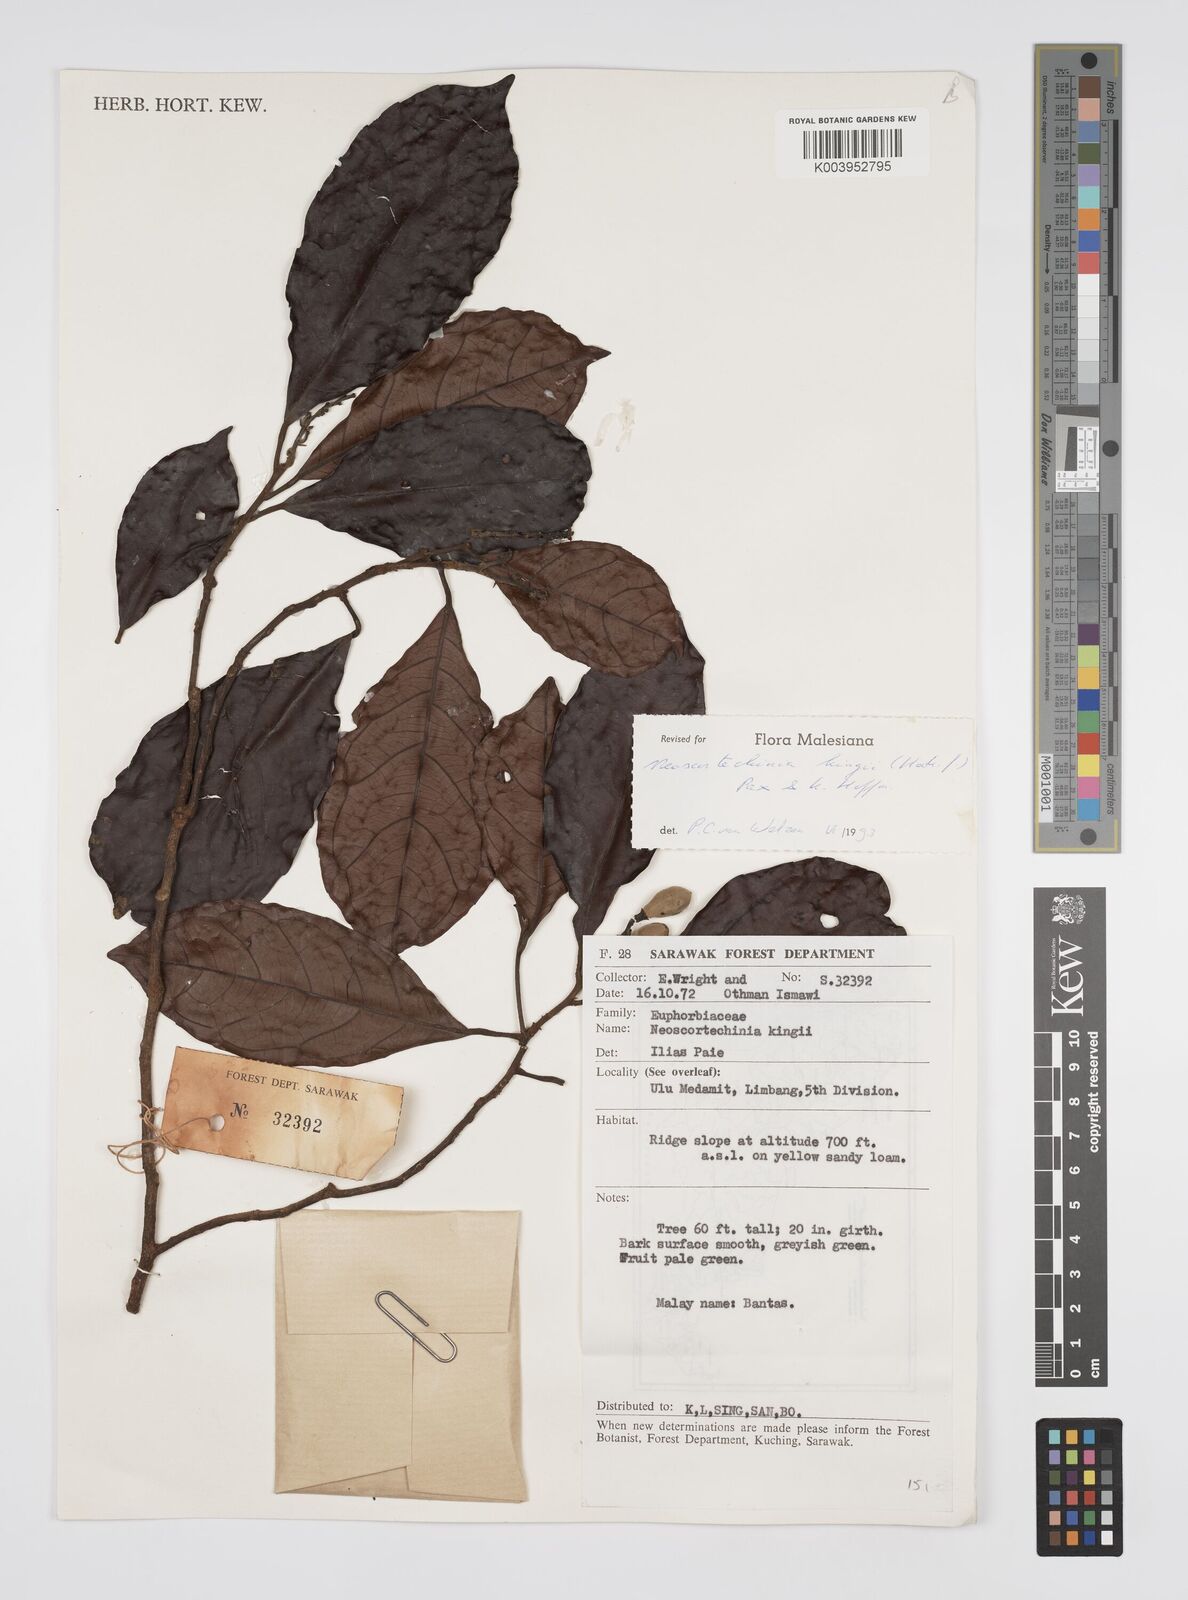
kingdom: Plantae
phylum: Tracheophyta
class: Magnoliopsida
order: Malpighiales
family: Euphorbiaceae
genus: Neoscortechinia
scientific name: Neoscortechinia kingii
